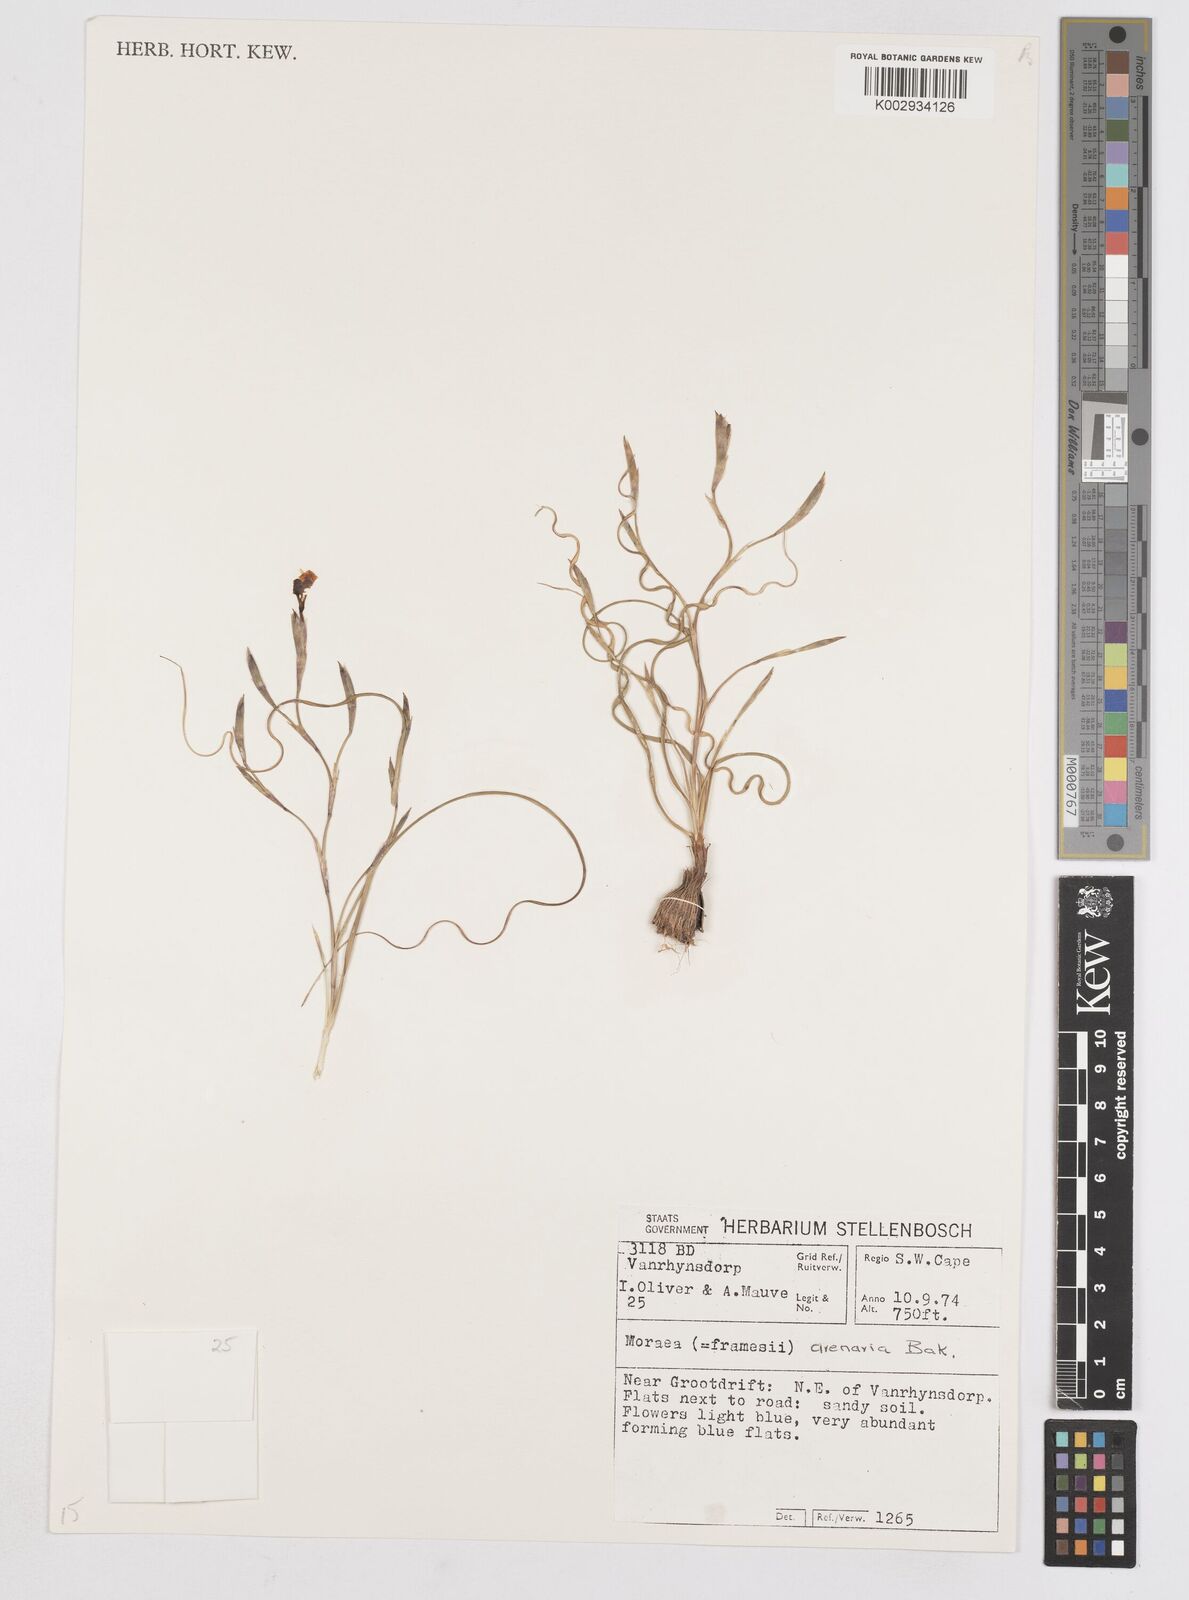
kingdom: Plantae
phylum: Tracheophyta
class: Liliopsida
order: Asparagales
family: Iridaceae
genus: Moraea
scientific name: Moraea serpentina
